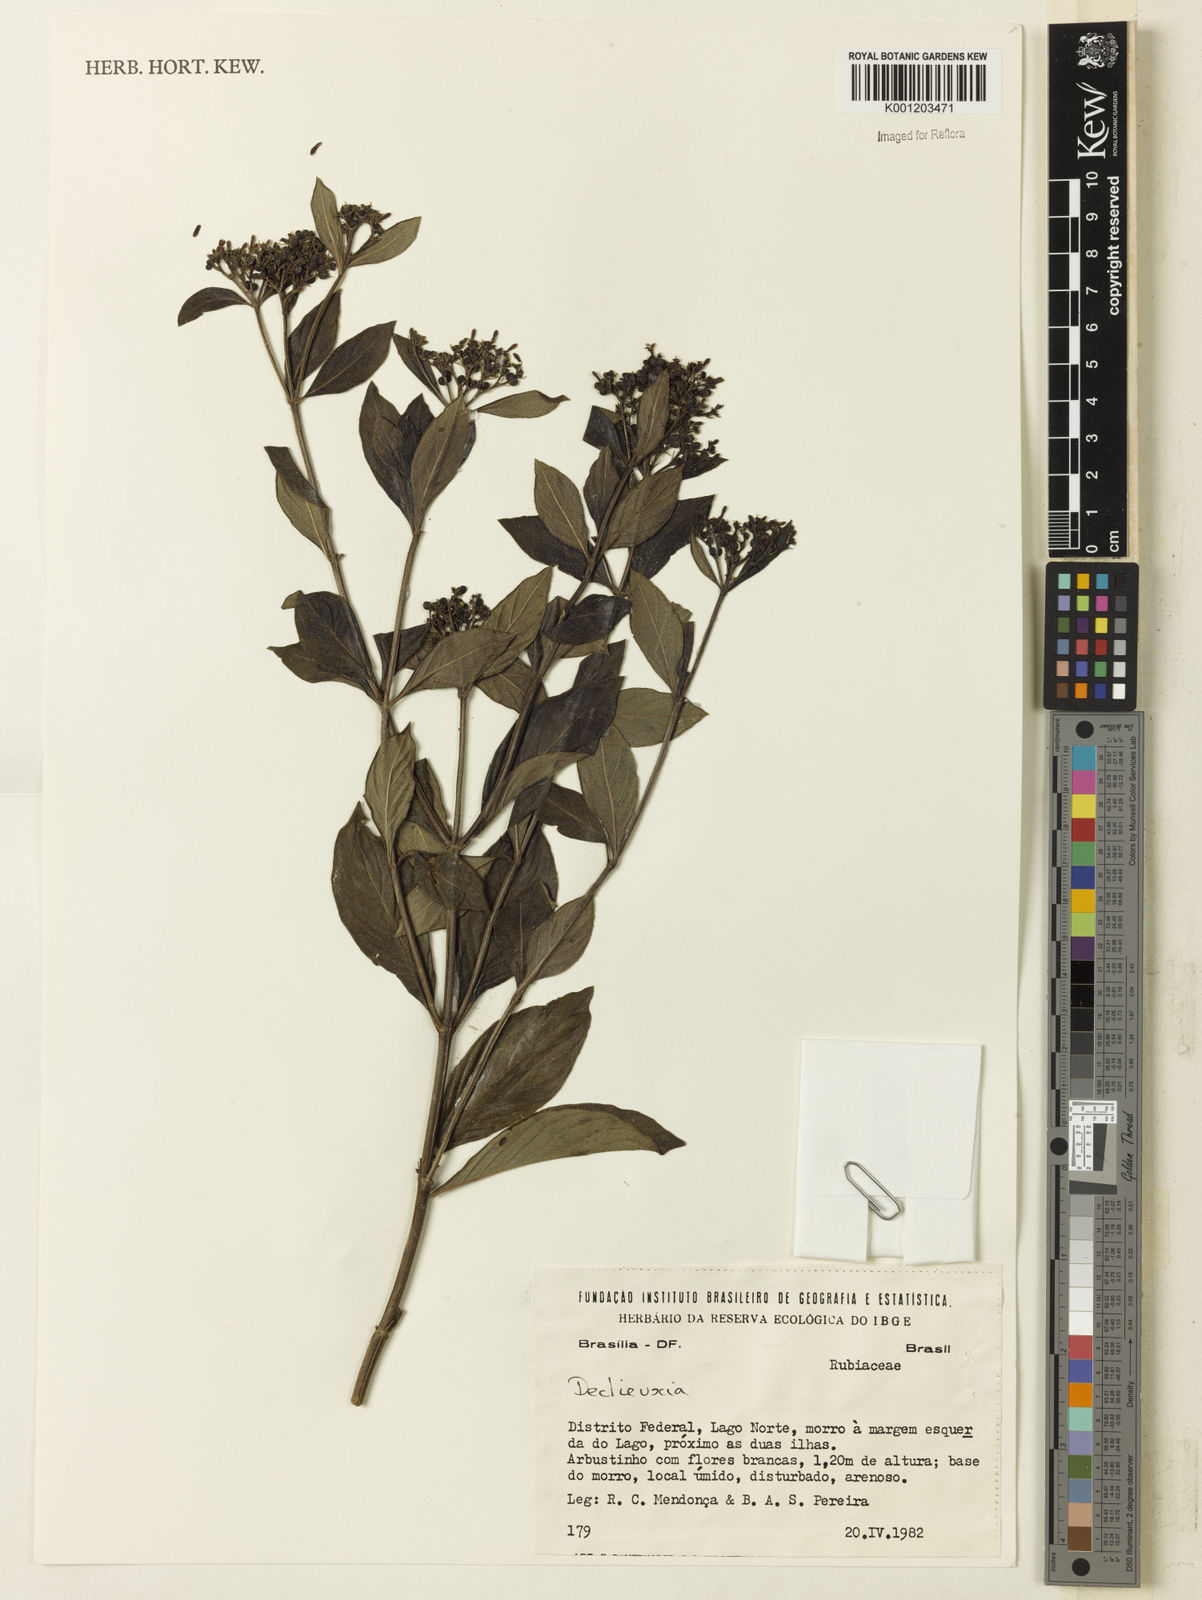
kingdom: Plantae
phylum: Tracheophyta
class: Magnoliopsida
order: Gentianales
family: Rubiaceae
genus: Declieuxia
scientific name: Declieuxia fruticosa
